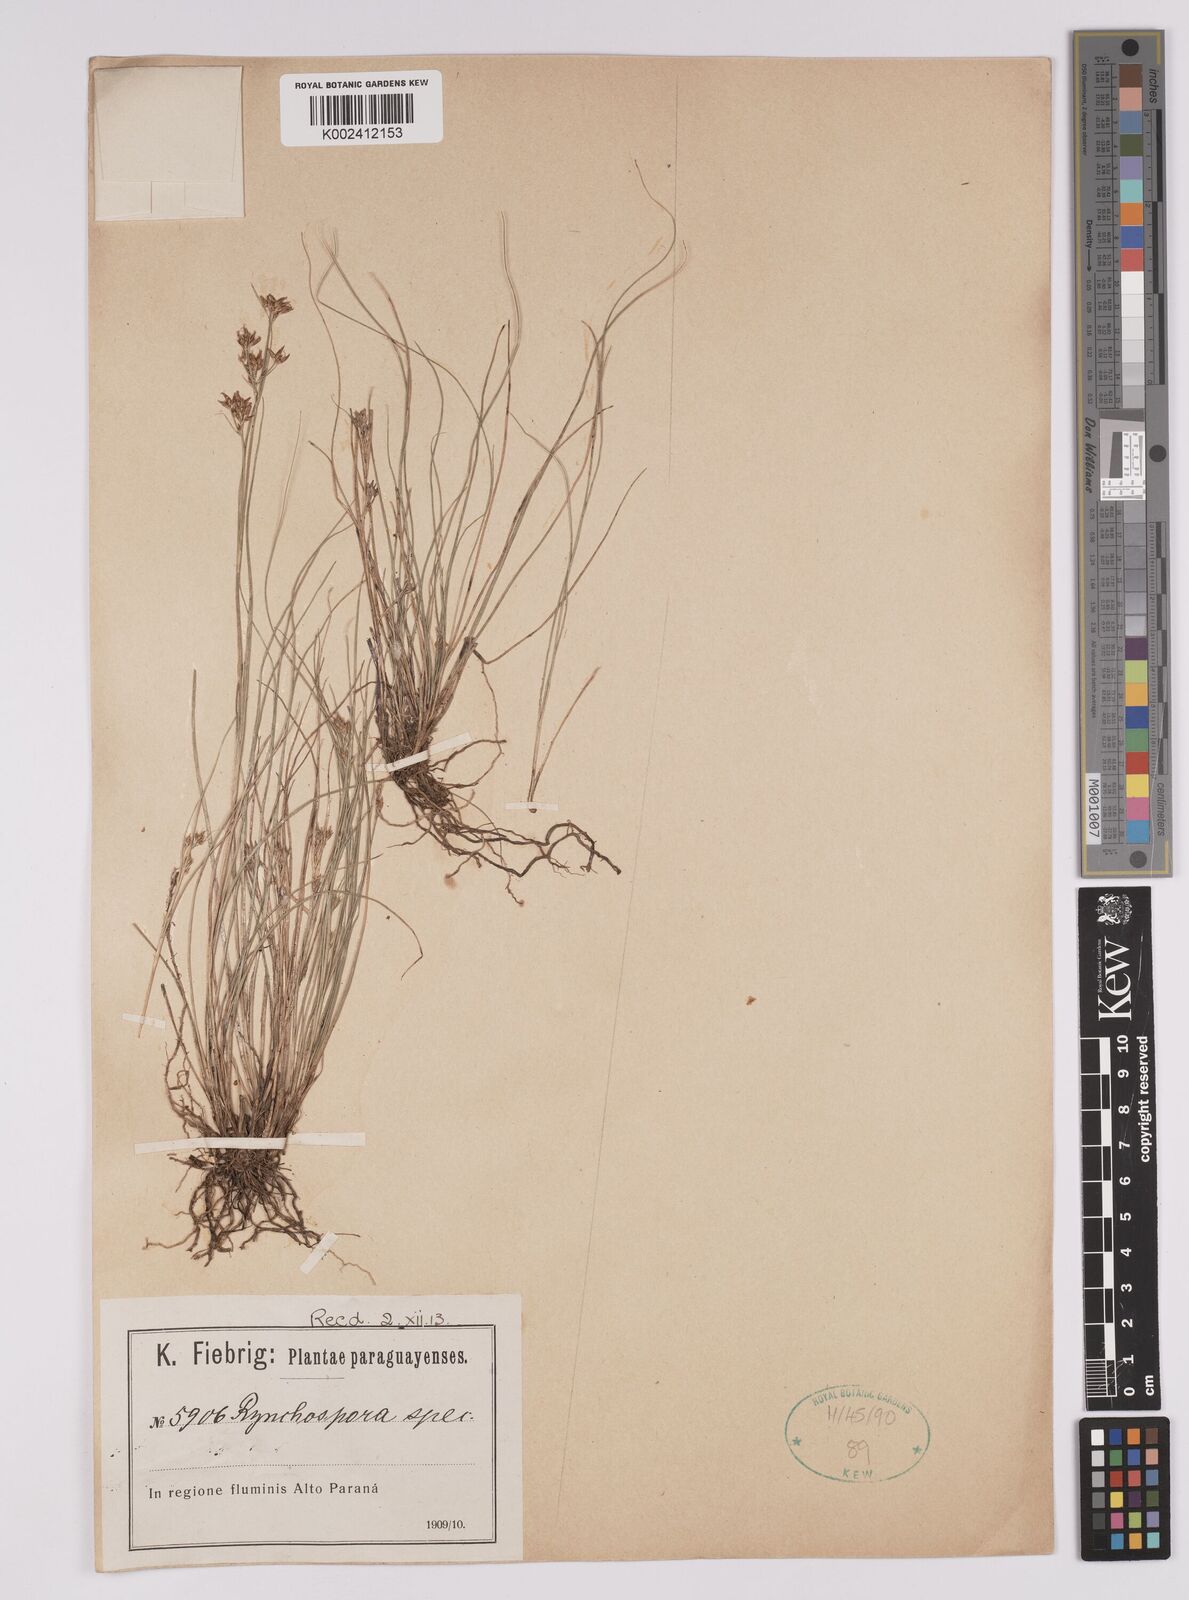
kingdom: Plantae
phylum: Tracheophyta
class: Liliopsida
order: Poales
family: Cyperaceae
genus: Rhynchospora
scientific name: Rhynchospora
